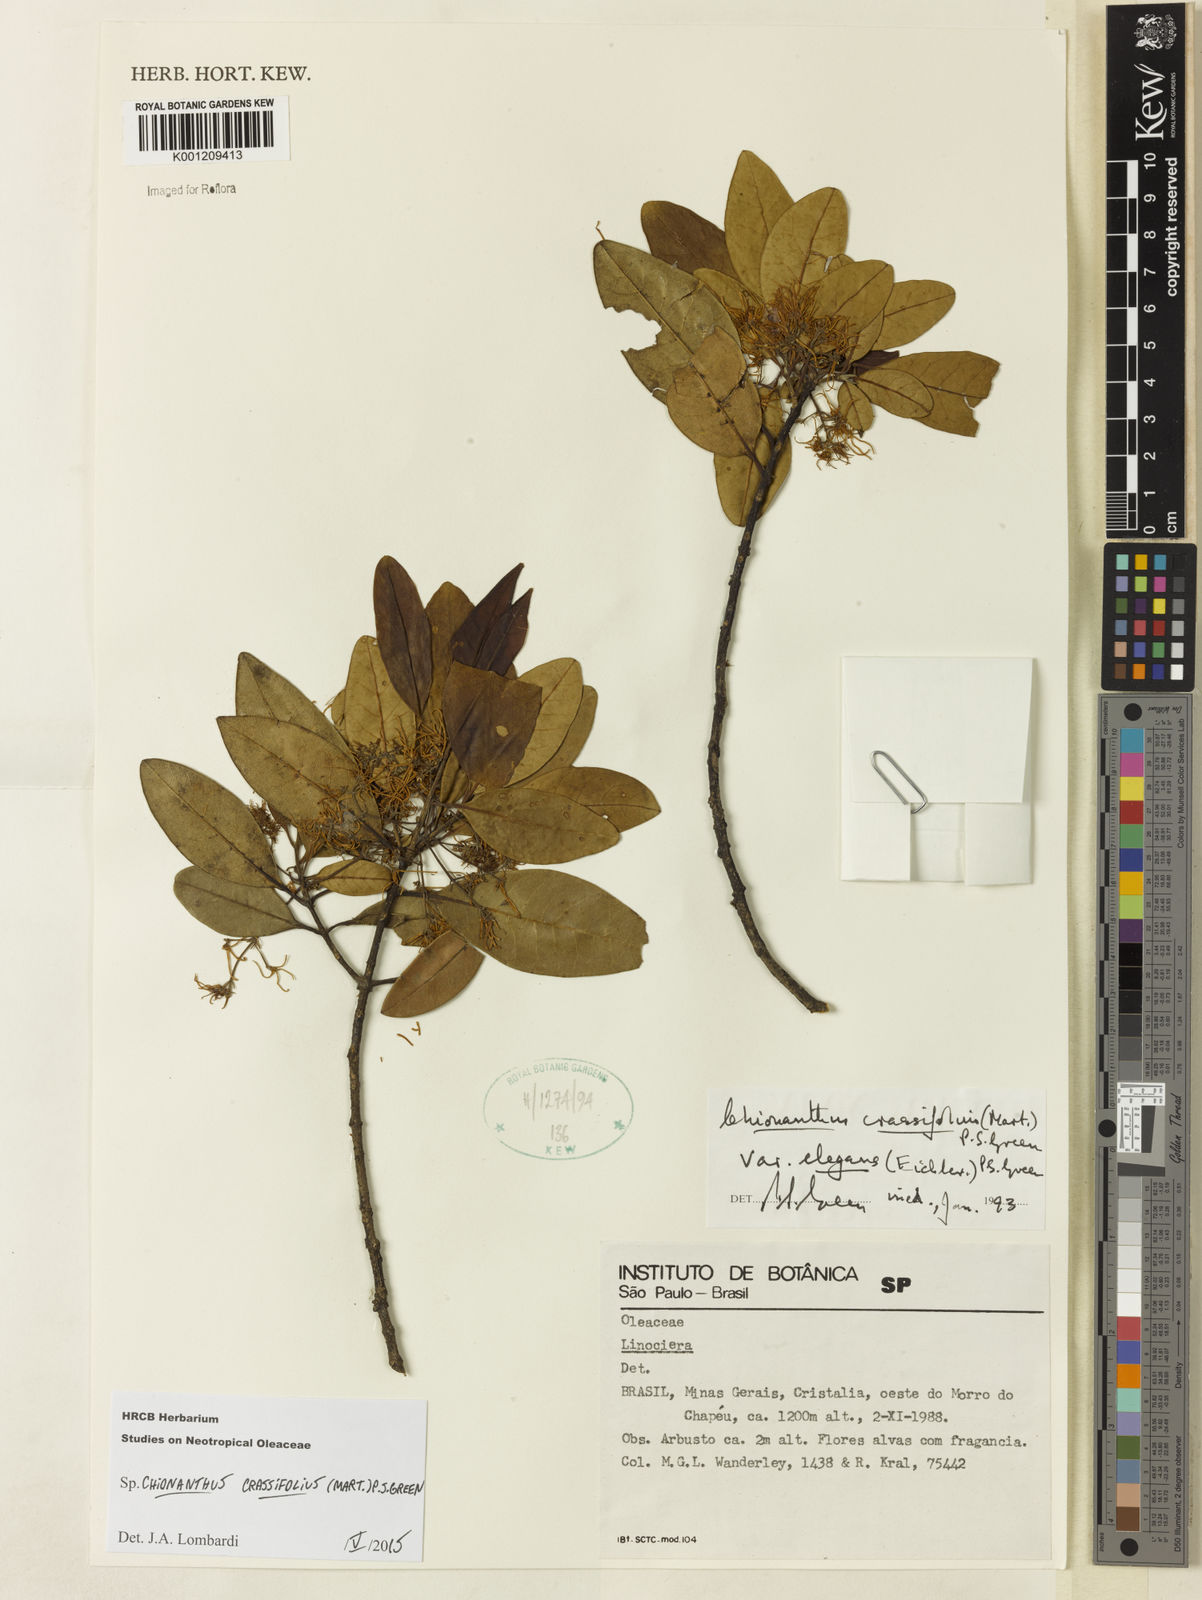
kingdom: Plantae
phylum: Tracheophyta
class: Magnoliopsida
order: Lamiales
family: Oleaceae
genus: Chionanthus
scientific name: Chionanthus crassifolius
